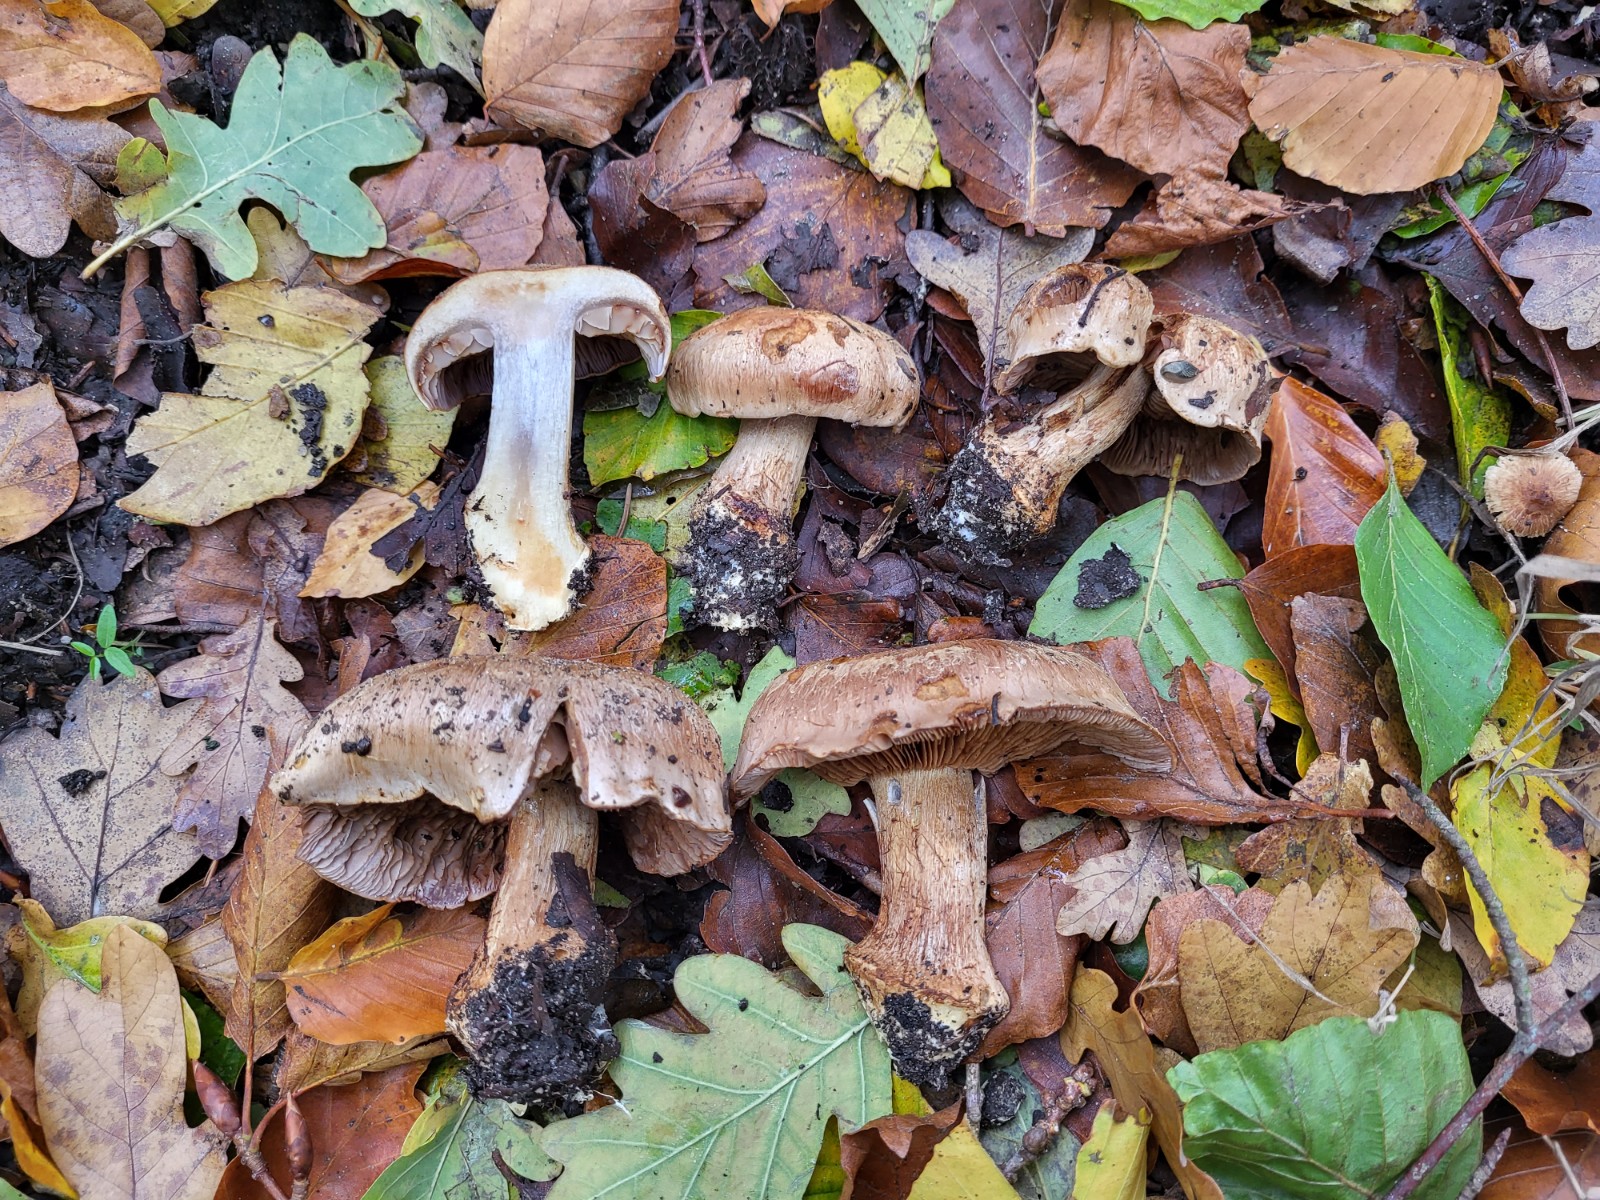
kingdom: Fungi
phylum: Basidiomycota
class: Agaricomycetes
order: Agaricales
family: Cortinariaceae
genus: Phlegmacium
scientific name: Phlegmacium luhmannii
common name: musegrå slørhat
